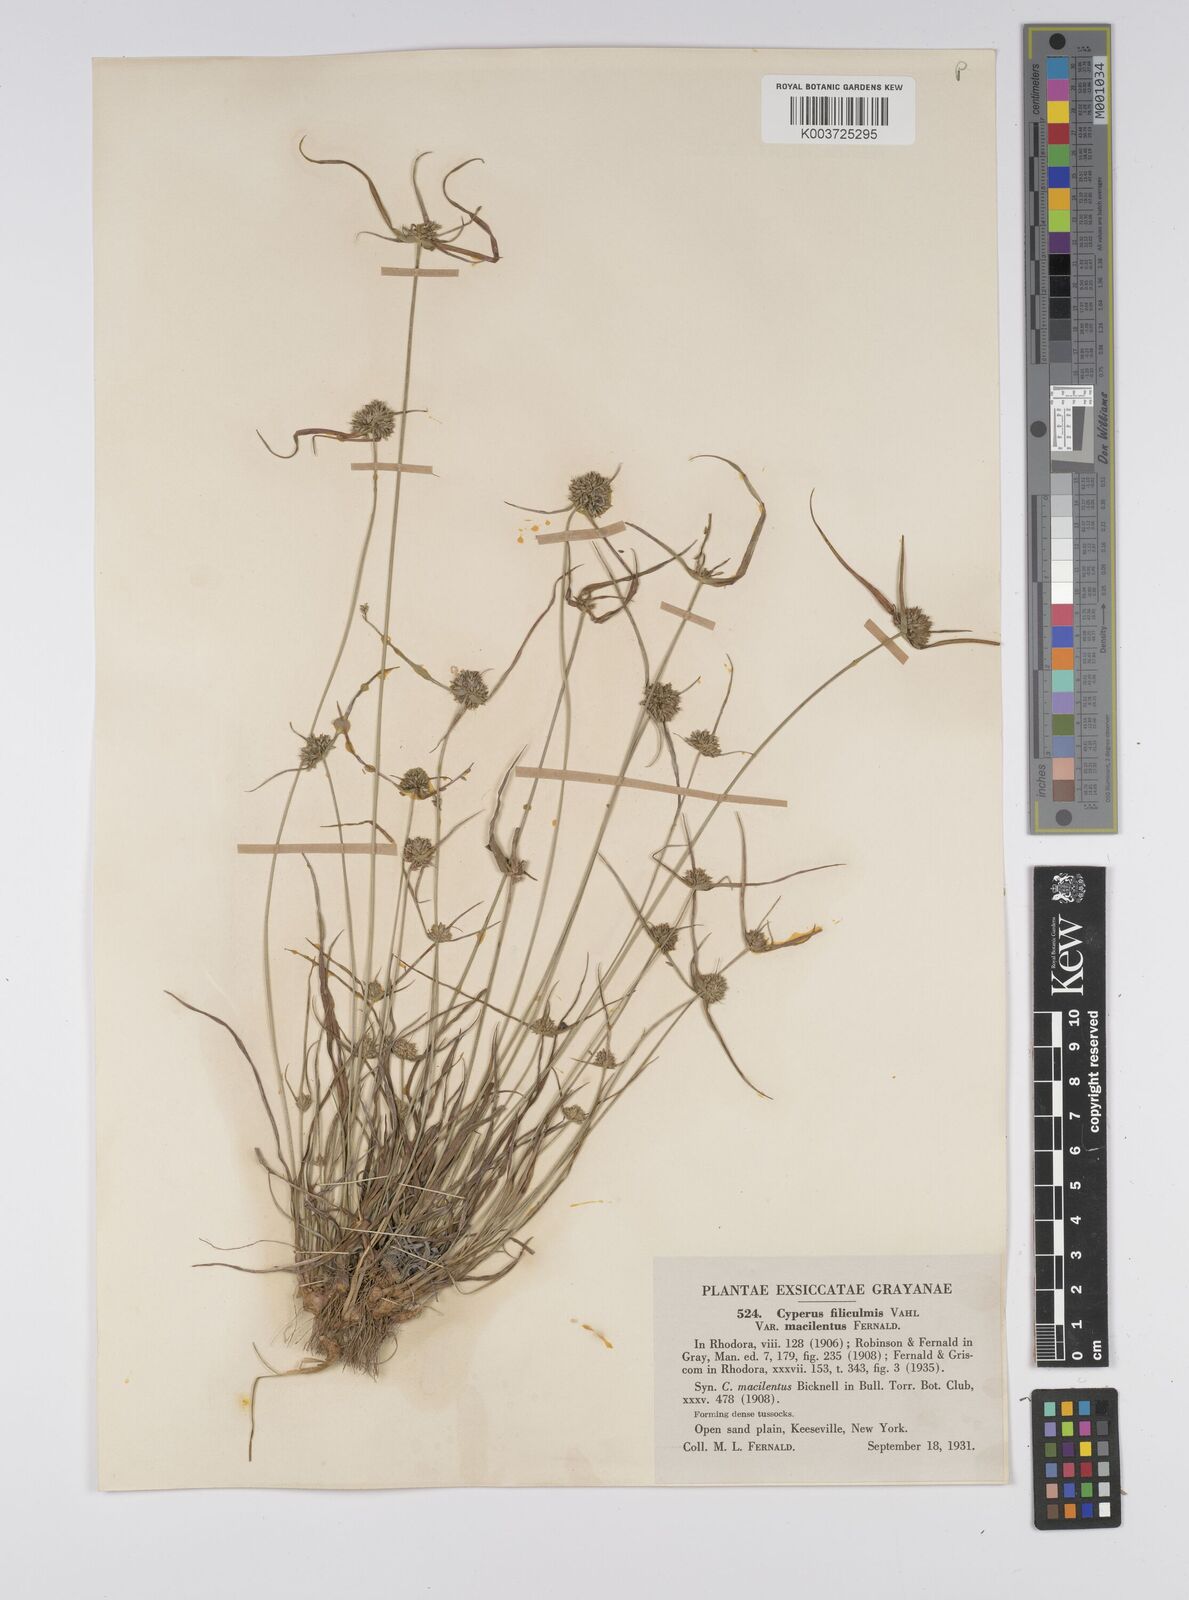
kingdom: Plantae
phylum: Tracheophyta
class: Liliopsida
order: Poales
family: Cyperaceae
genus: Cyperus
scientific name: Cyperus lupulinus
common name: Great plains flatsedge
